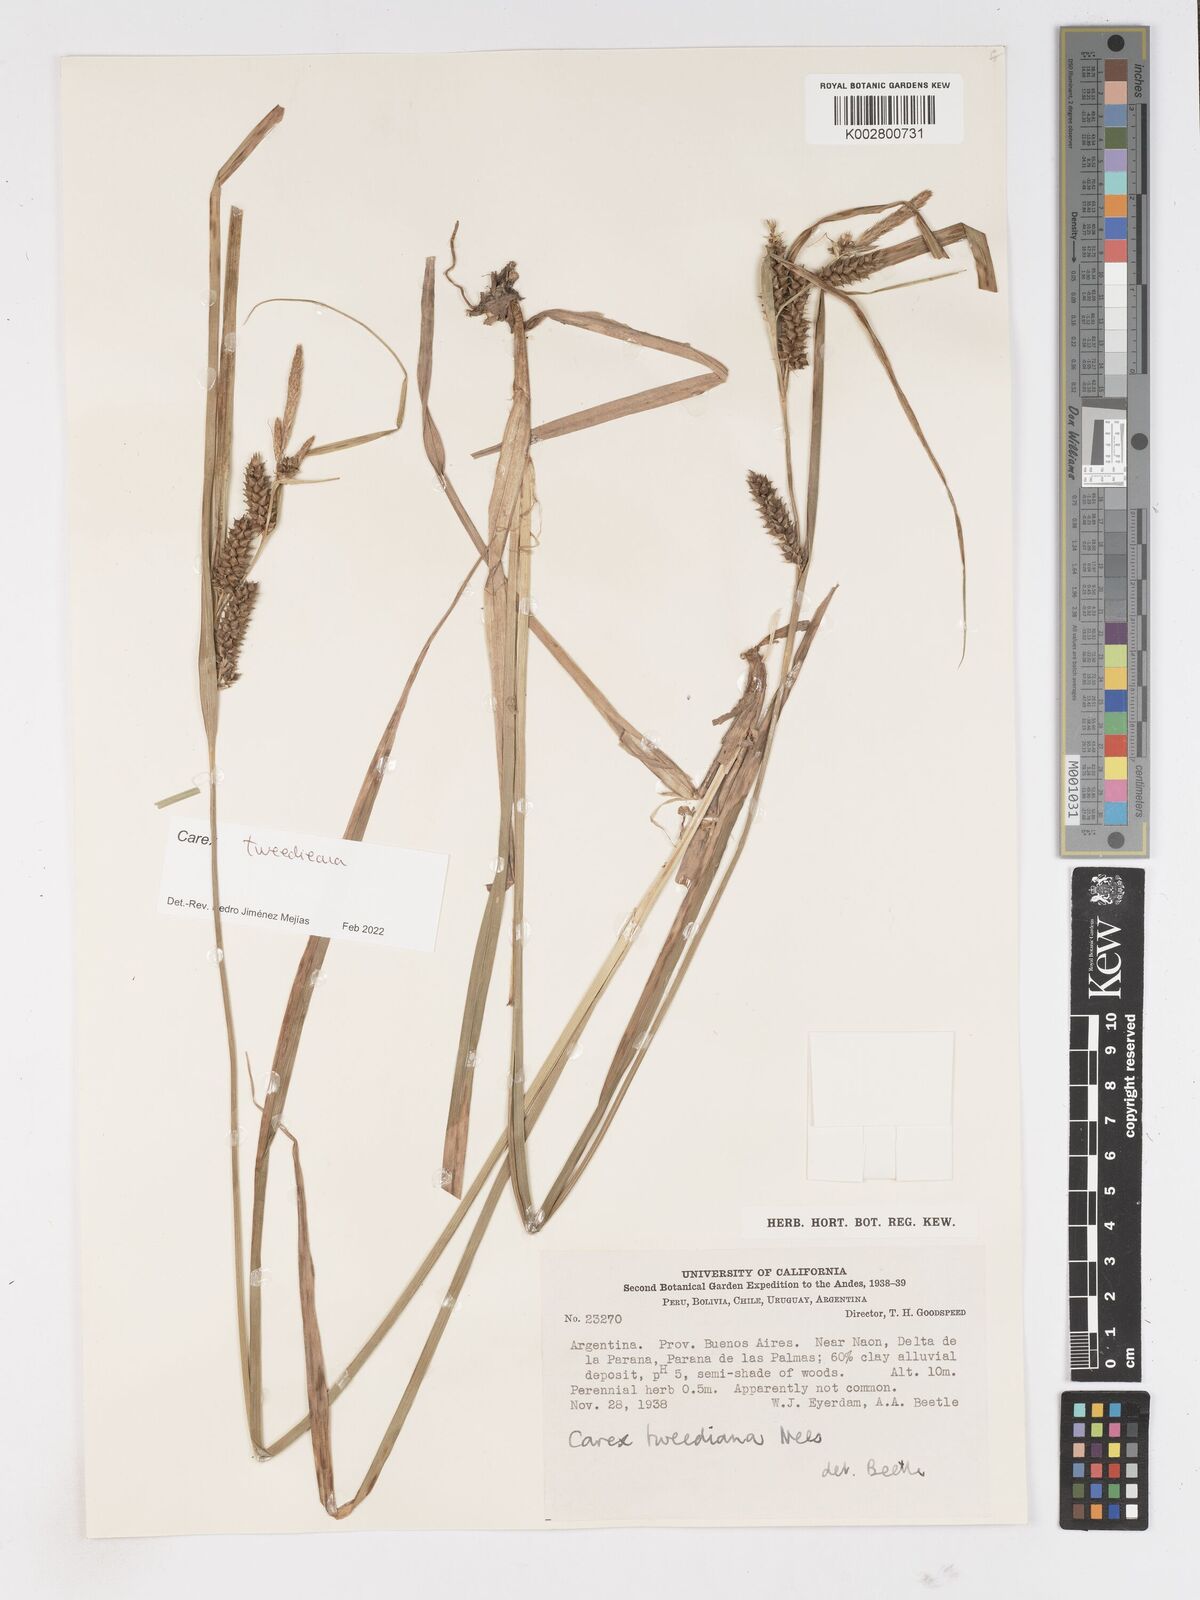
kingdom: Plantae
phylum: Tracheophyta
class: Liliopsida
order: Poales
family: Cyperaceae
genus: Carex
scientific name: Carex tweedieana
